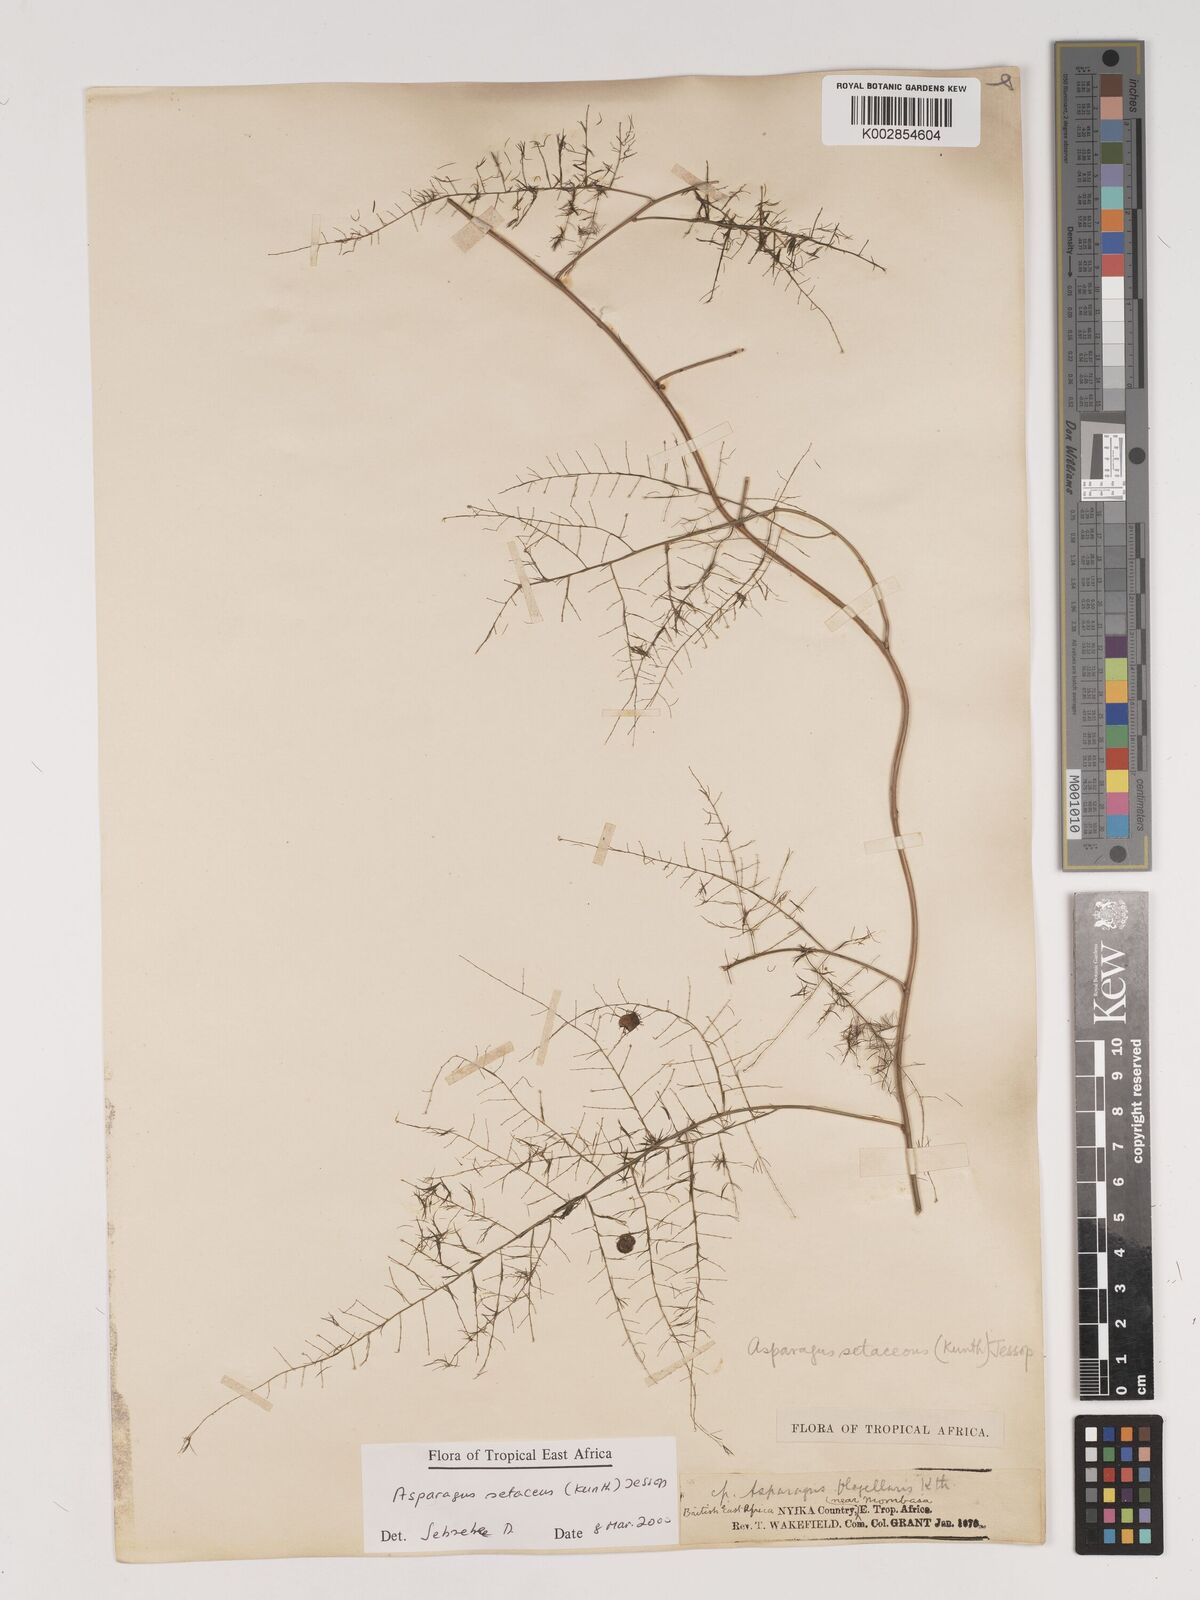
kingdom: Plantae
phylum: Tracheophyta
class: Liliopsida
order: Asparagales
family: Asparagaceae
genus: Asparagus
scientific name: Asparagus setaceus
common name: Common asparagus fern
